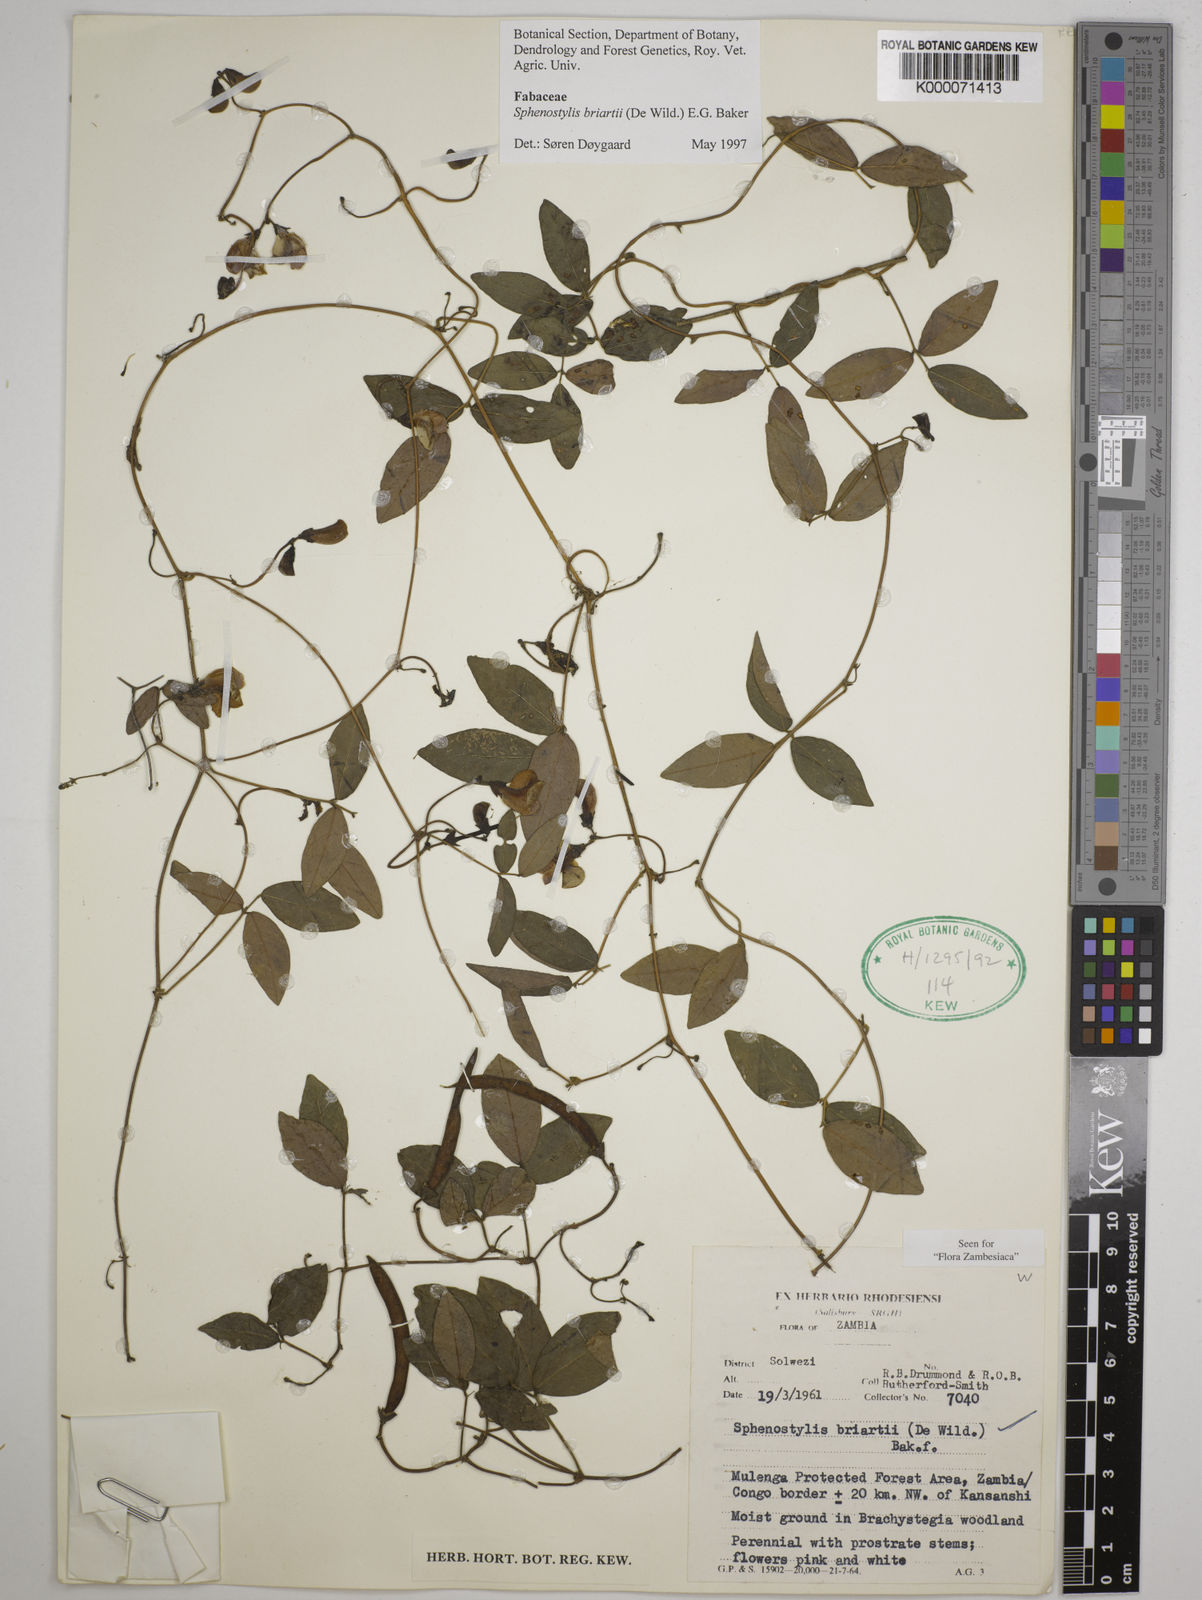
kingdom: Plantae
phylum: Tracheophyta
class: Magnoliopsida
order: Fabales
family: Fabaceae
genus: Sphenostylis
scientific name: Sphenostylis briartii
